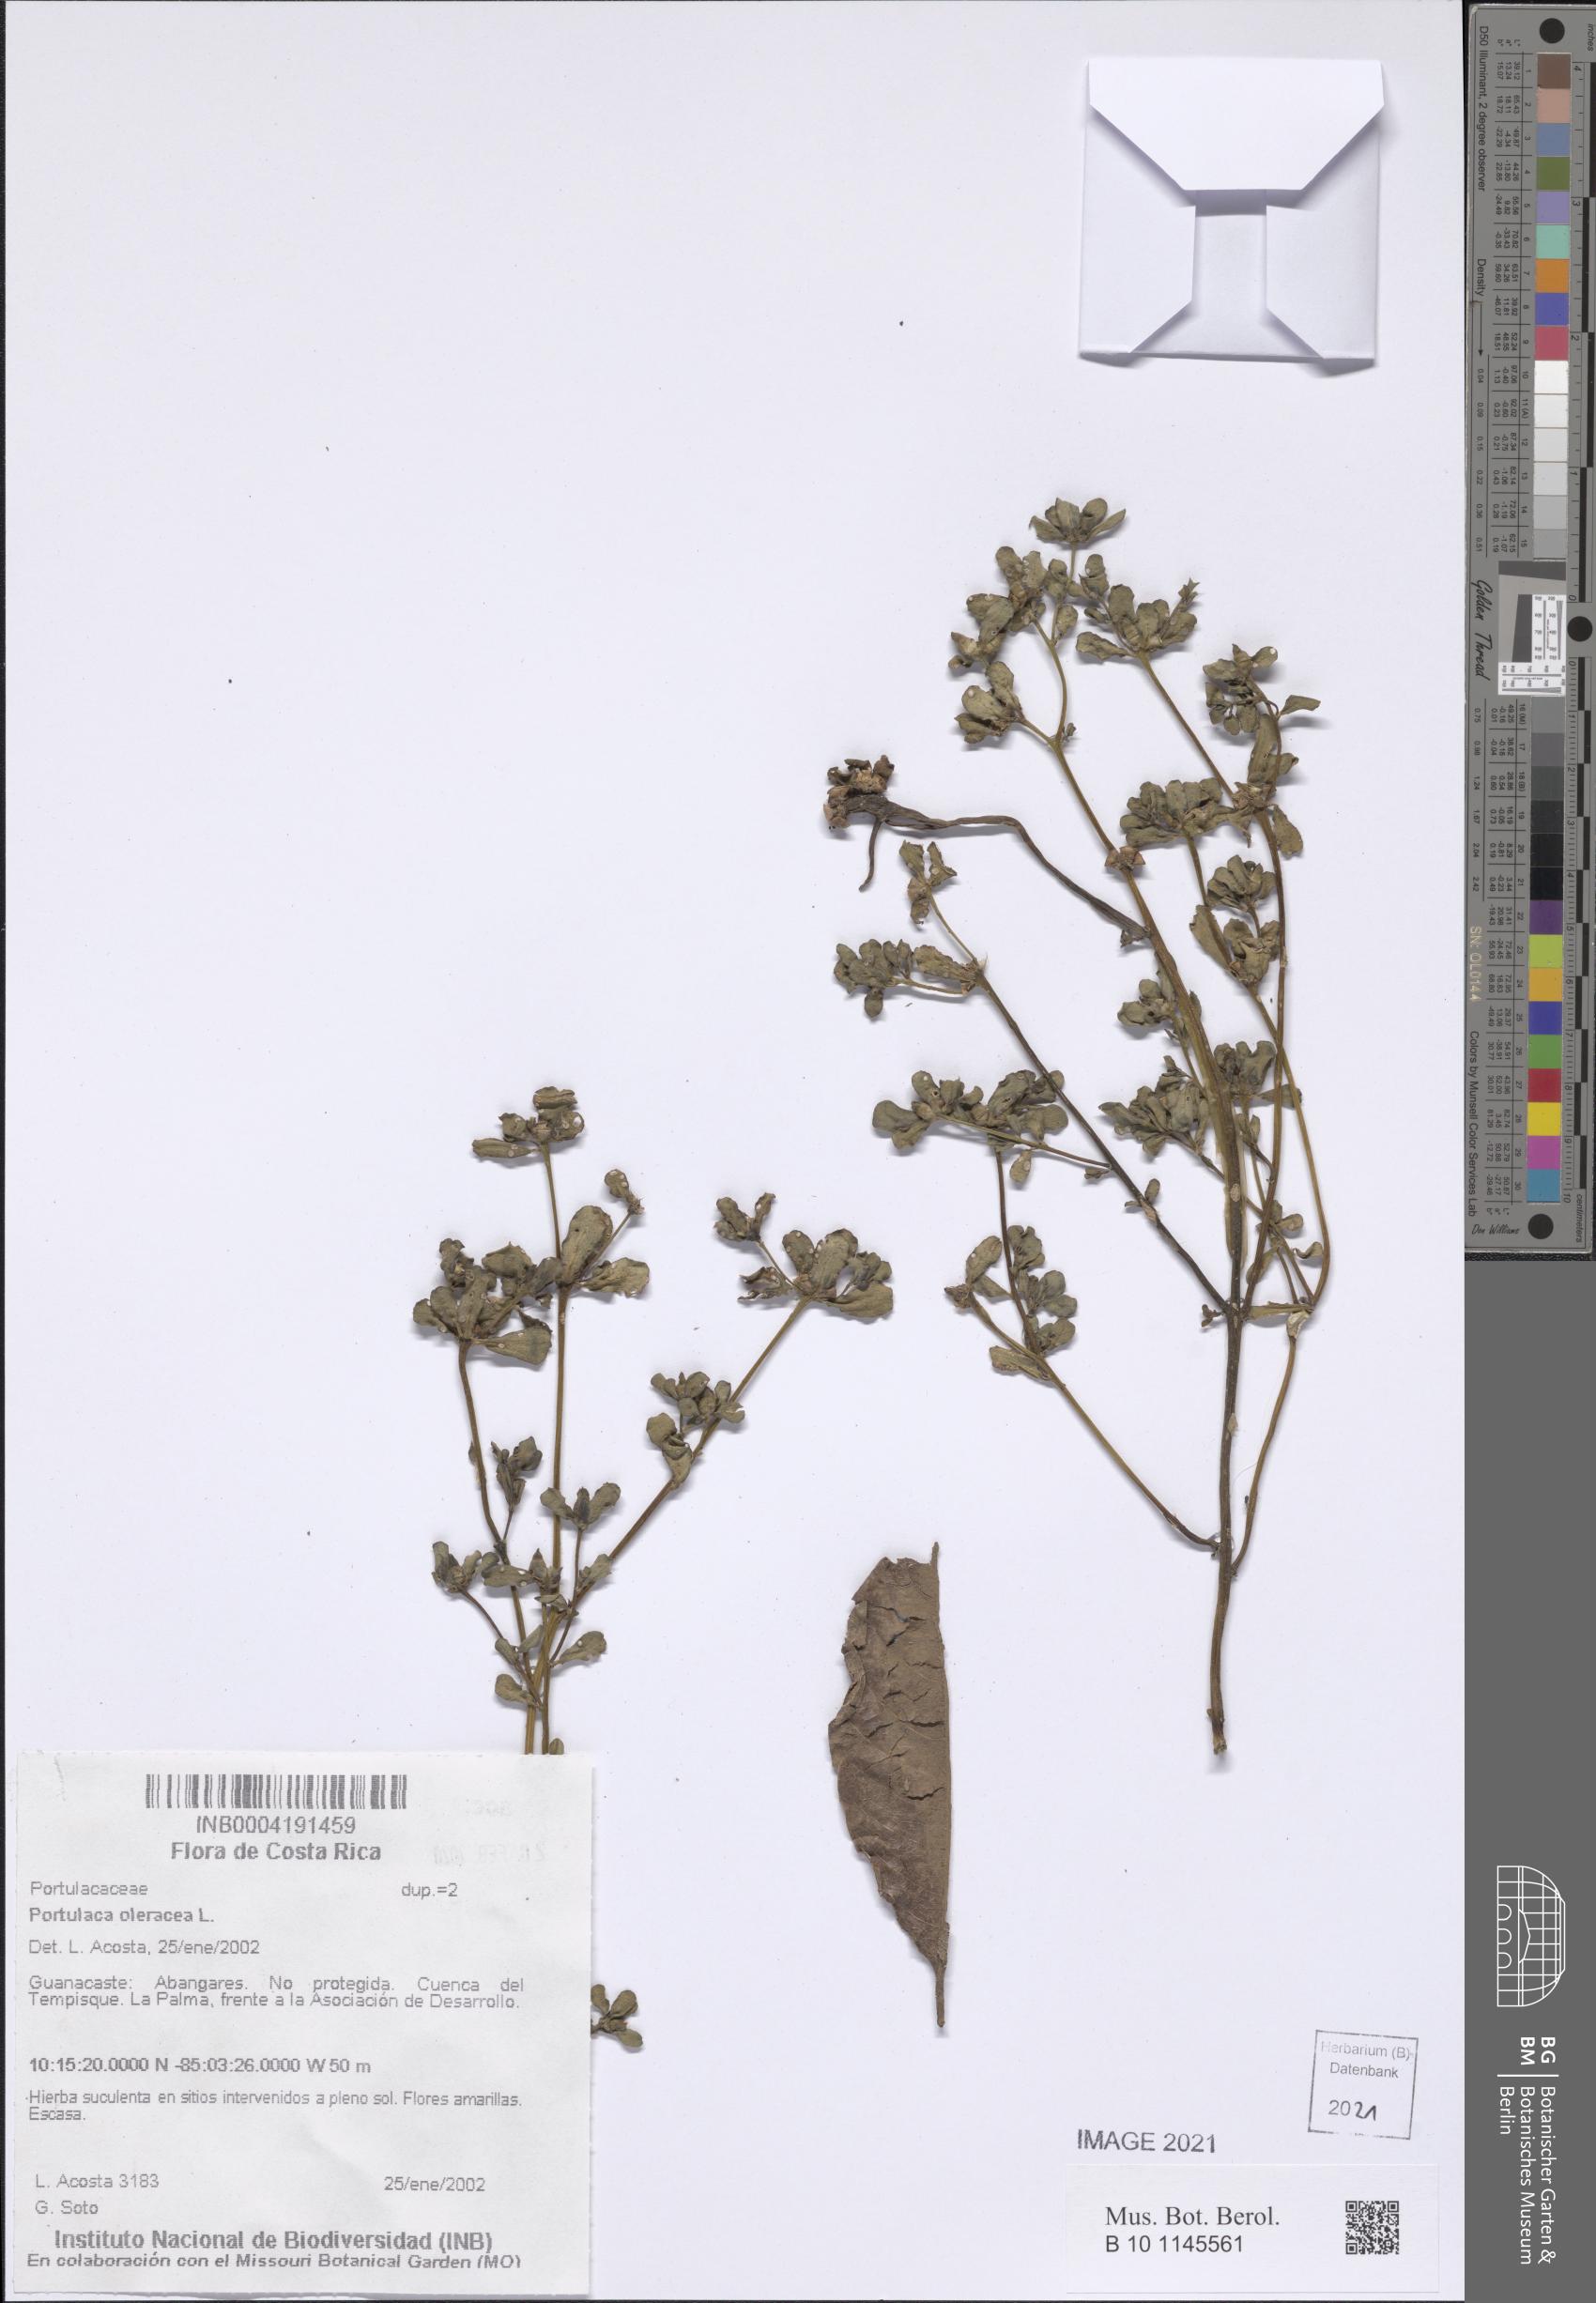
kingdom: Plantae
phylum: Tracheophyta
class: Magnoliopsida
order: Caryophyllales
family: Portulacaceae
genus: Portulaca
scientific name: Portulaca oleracea
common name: Common purslane
